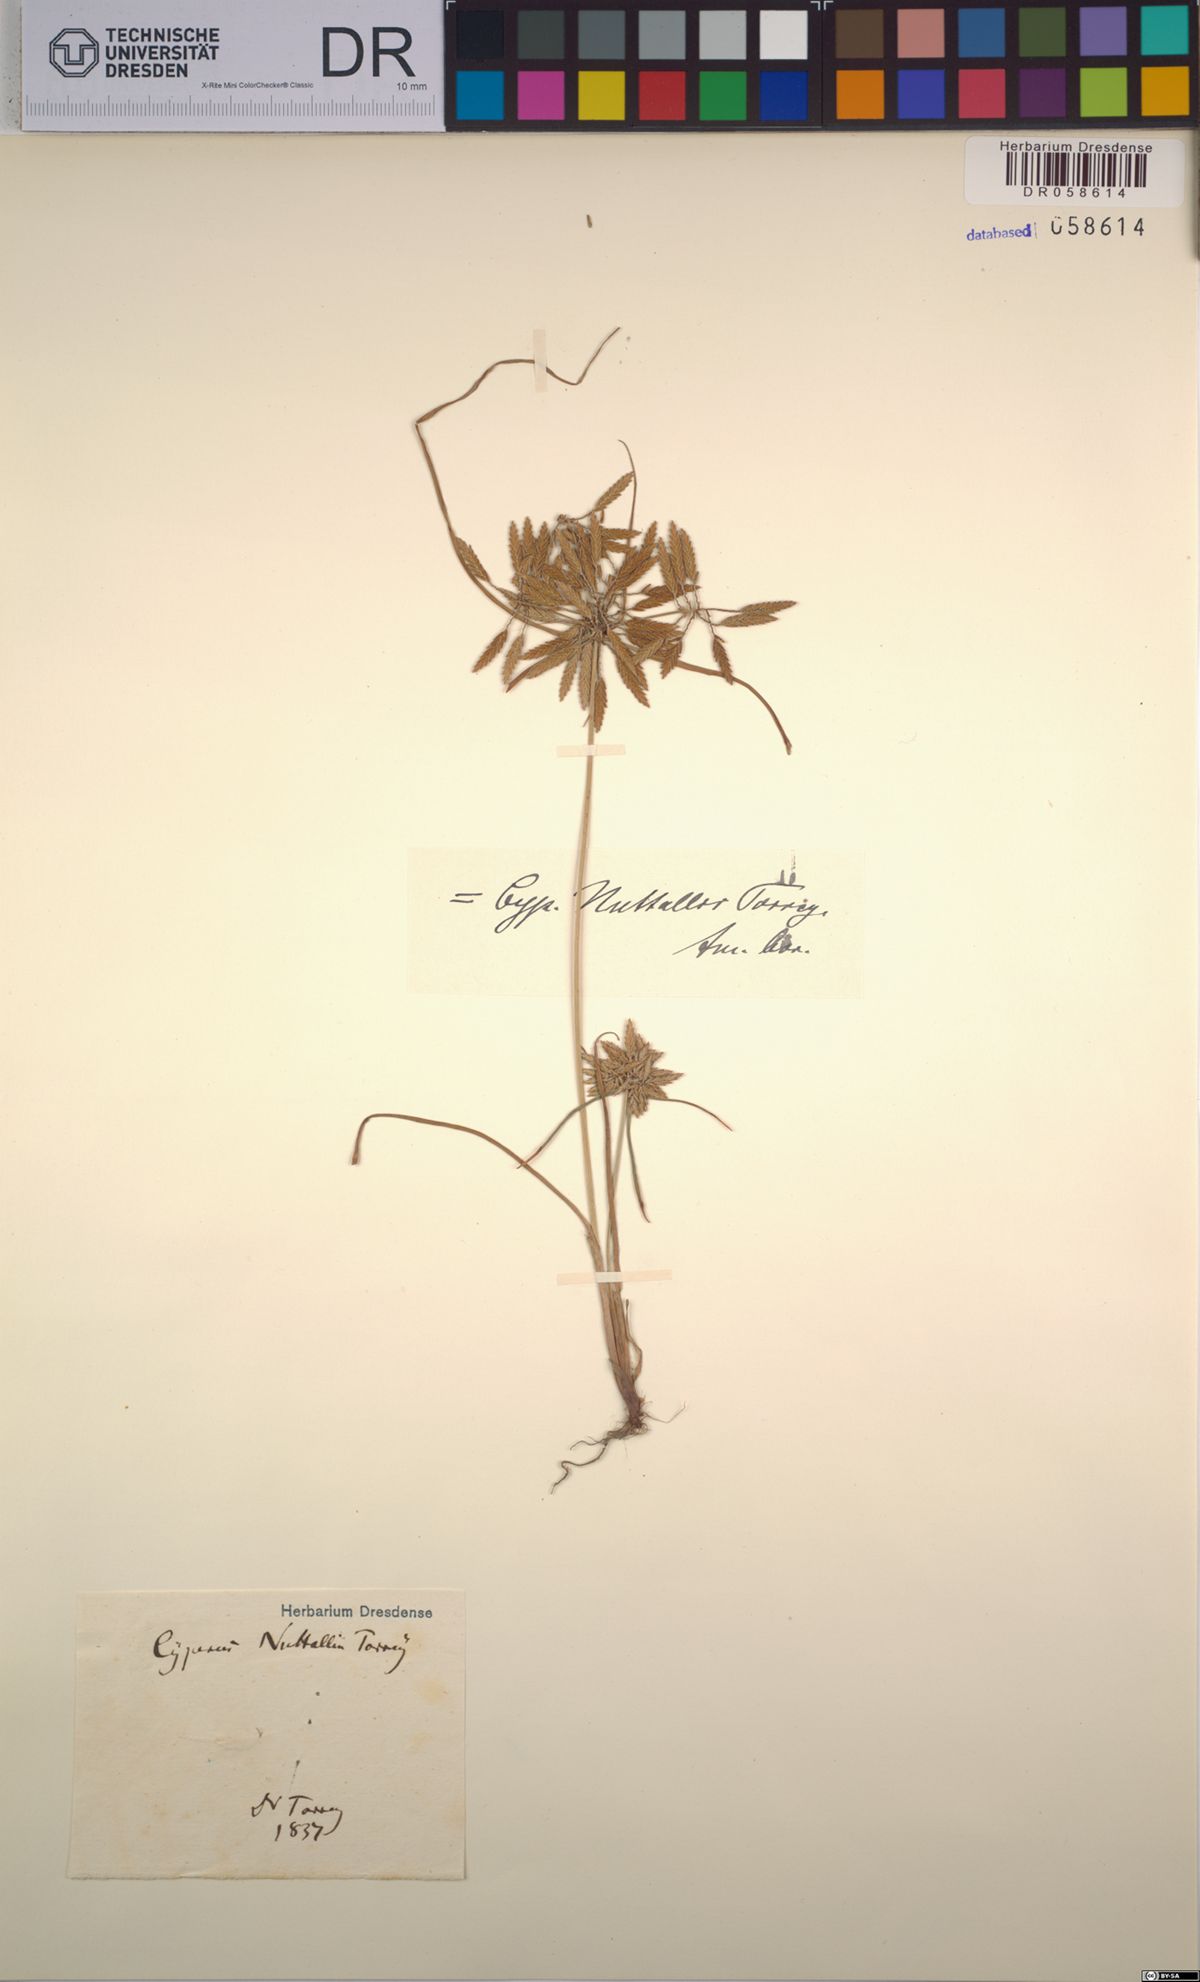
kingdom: Plantae
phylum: Tracheophyta
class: Liliopsida
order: Poales
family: Cyperaceae
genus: Cyperus
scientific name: Cyperus nuttallii
